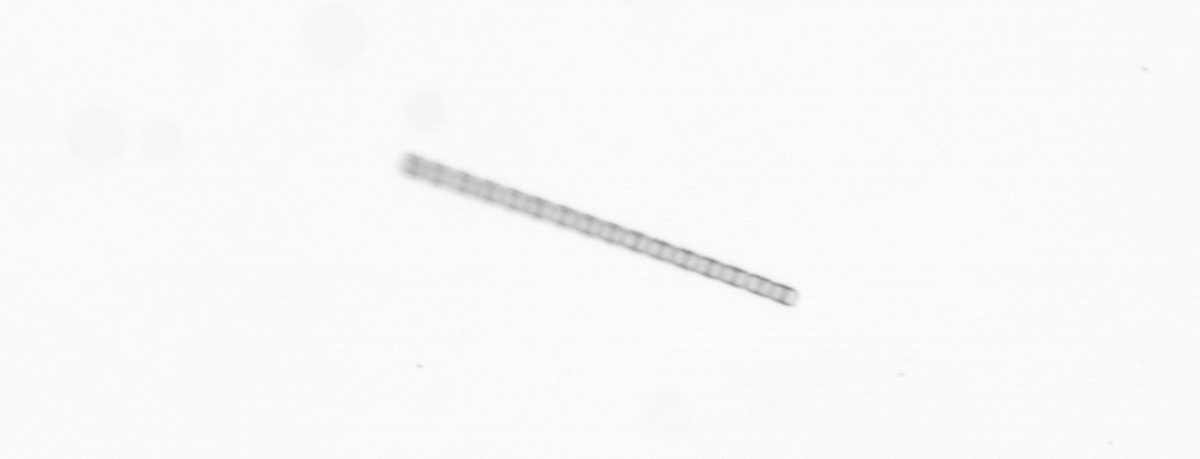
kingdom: Chromista
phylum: Ochrophyta
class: Bacillariophyceae
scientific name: Bacillariophyceae
